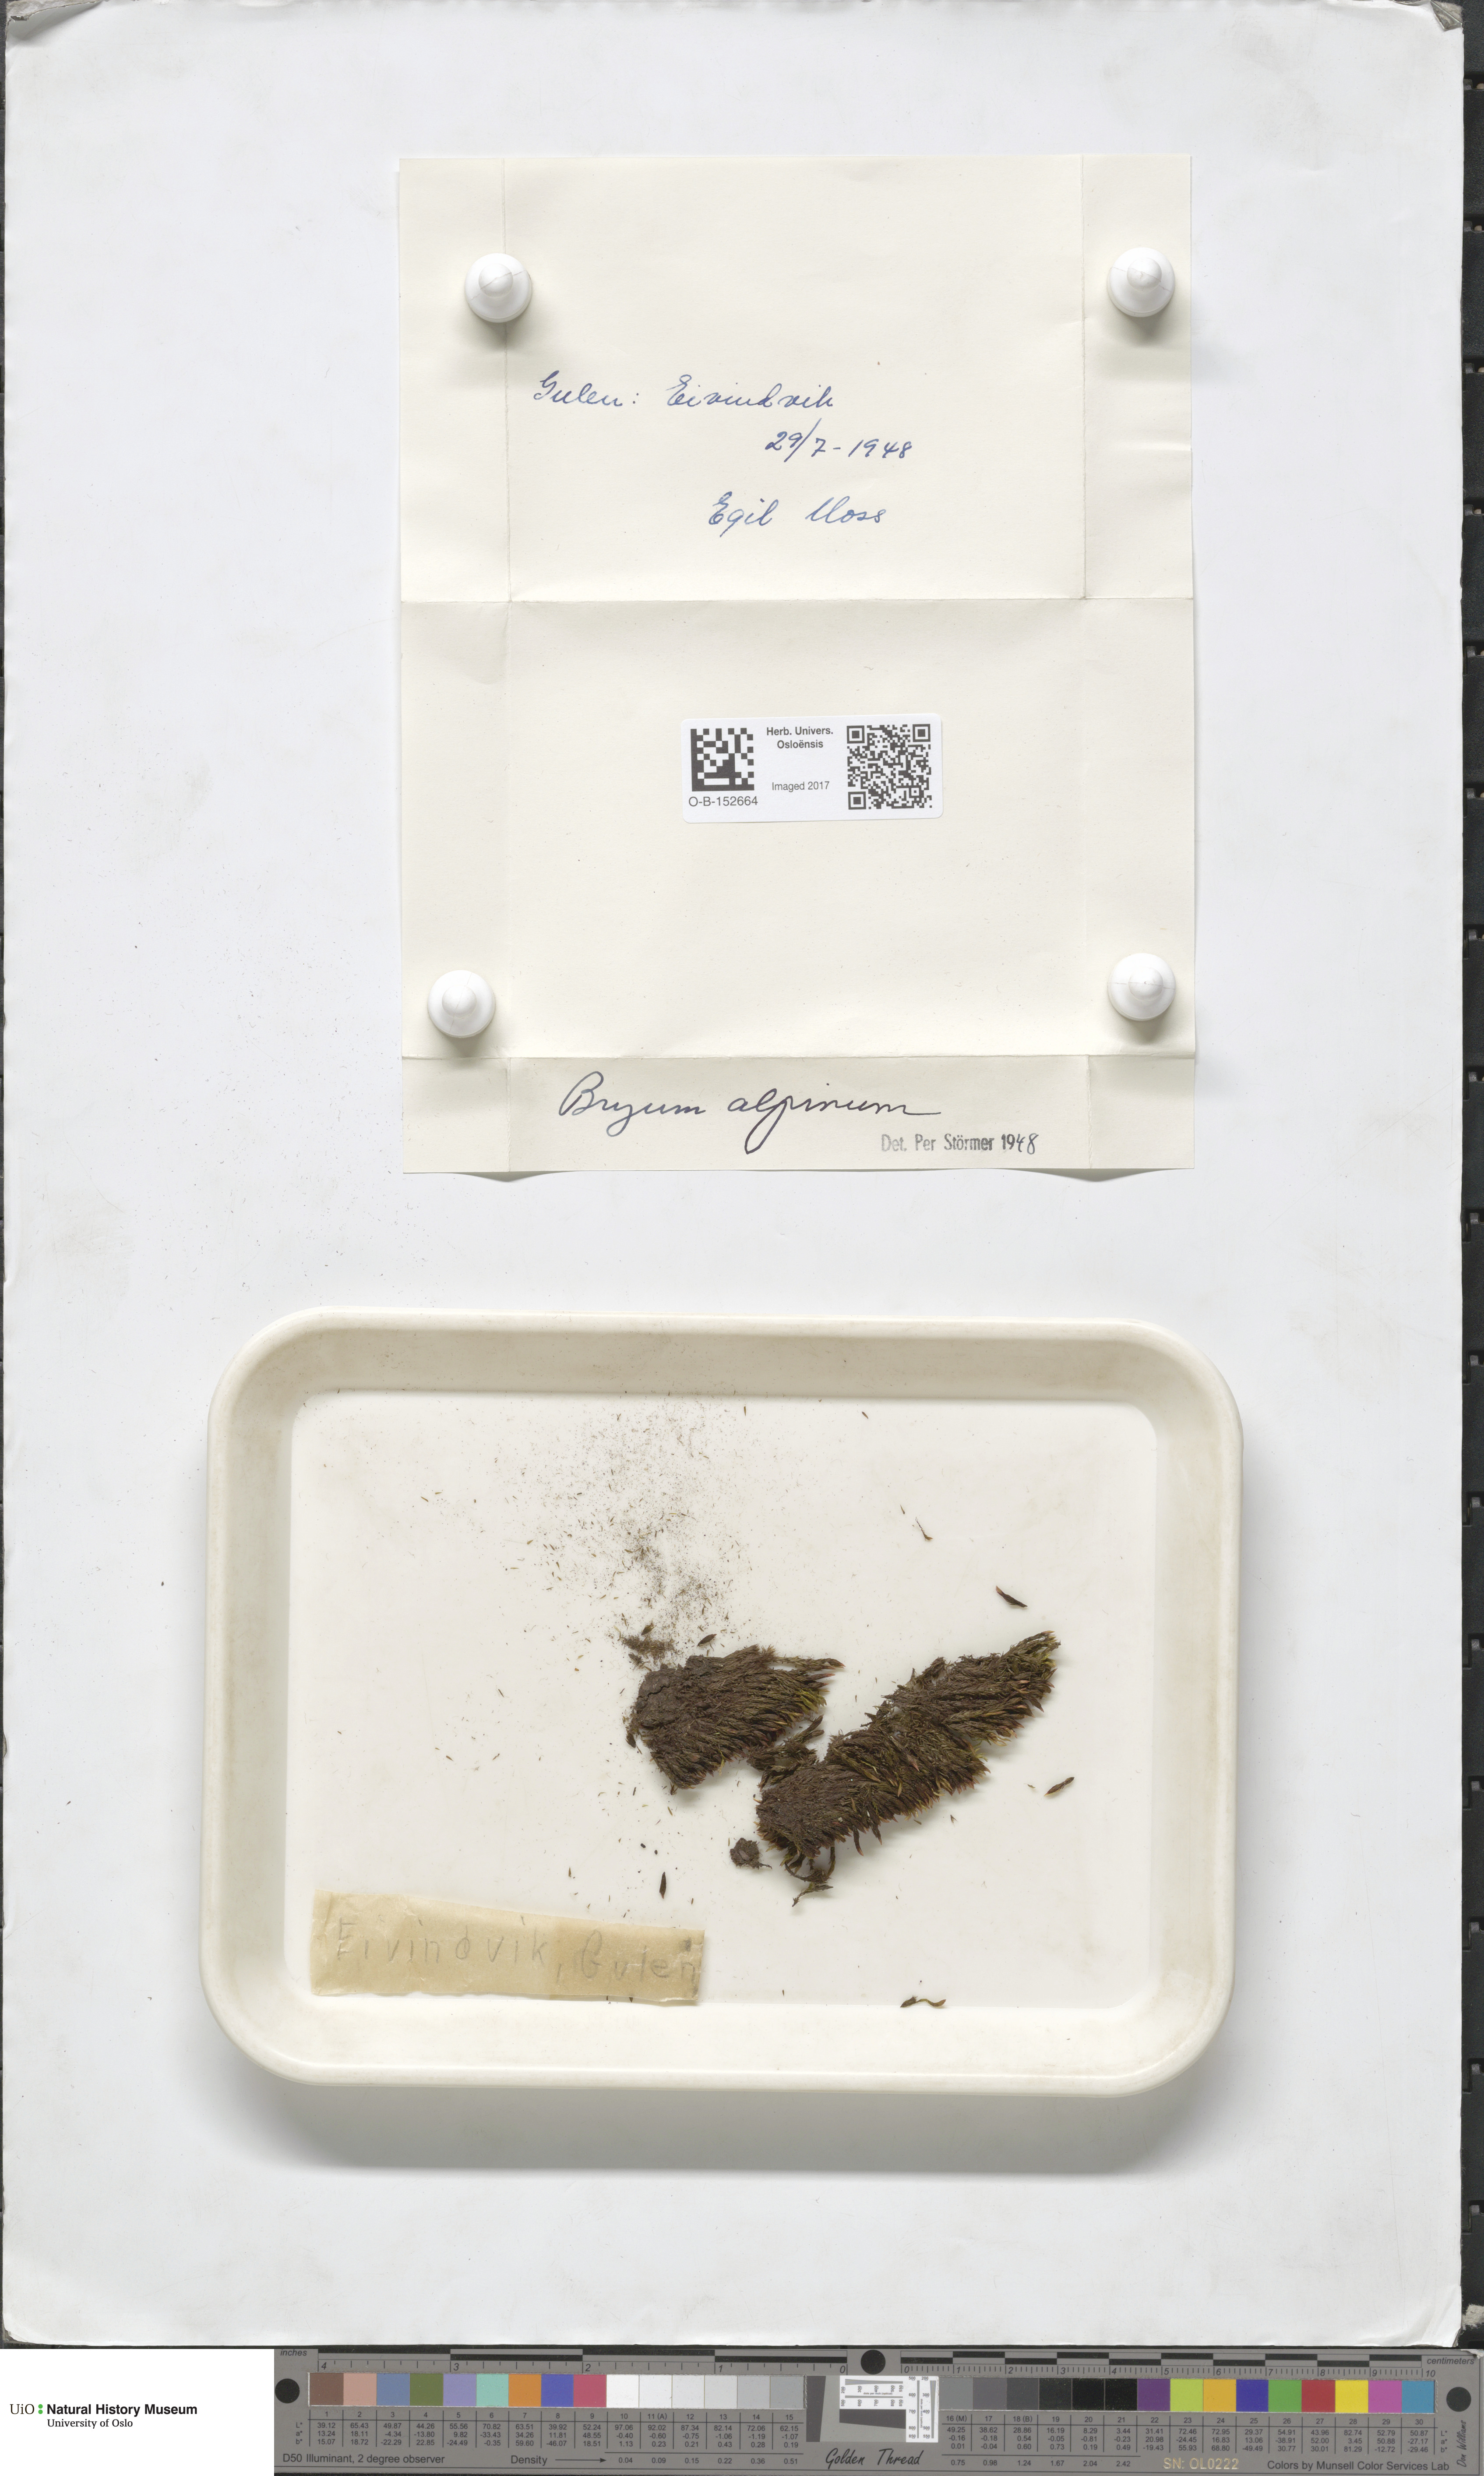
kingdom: Plantae
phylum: Bryophyta
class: Bryopsida
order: Bryales
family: Bryaceae
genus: Imbribryum
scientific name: Imbribryum alpinum
